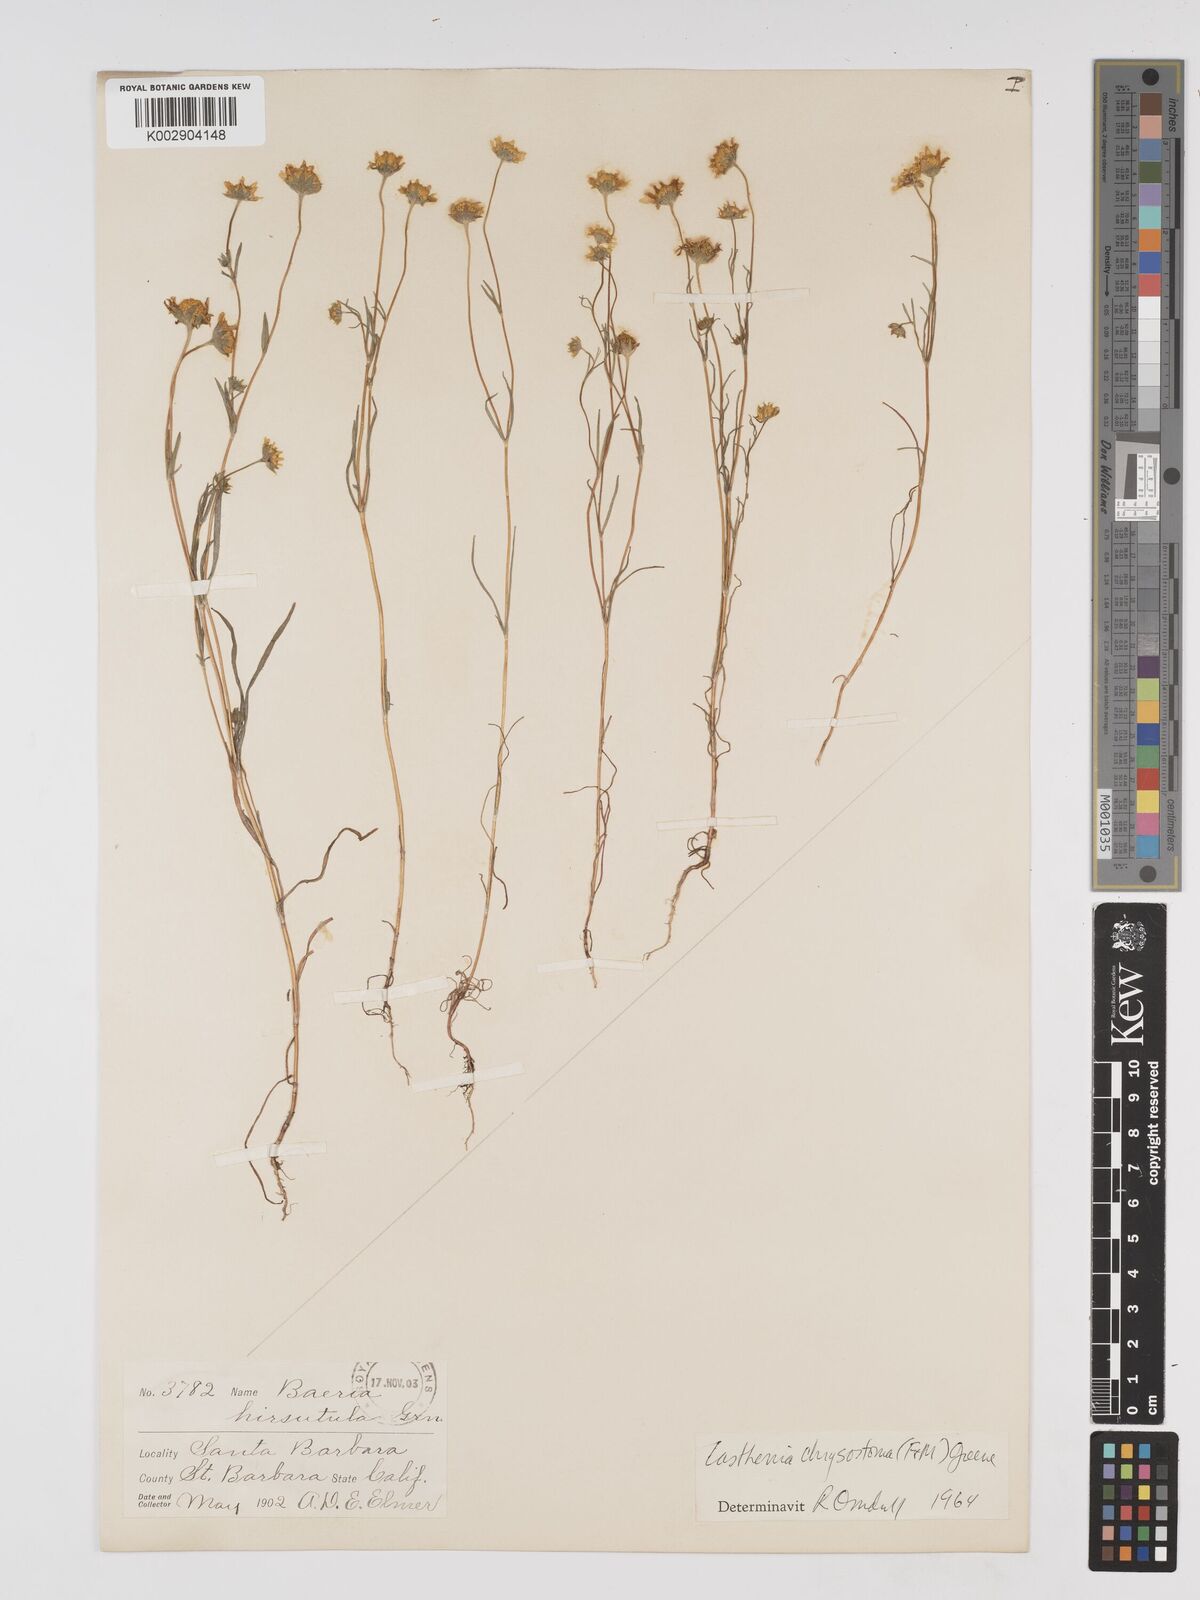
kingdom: Plantae
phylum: Tracheophyta
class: Magnoliopsida
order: Asterales
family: Asteraceae
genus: Lasthenia
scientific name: Lasthenia californica
